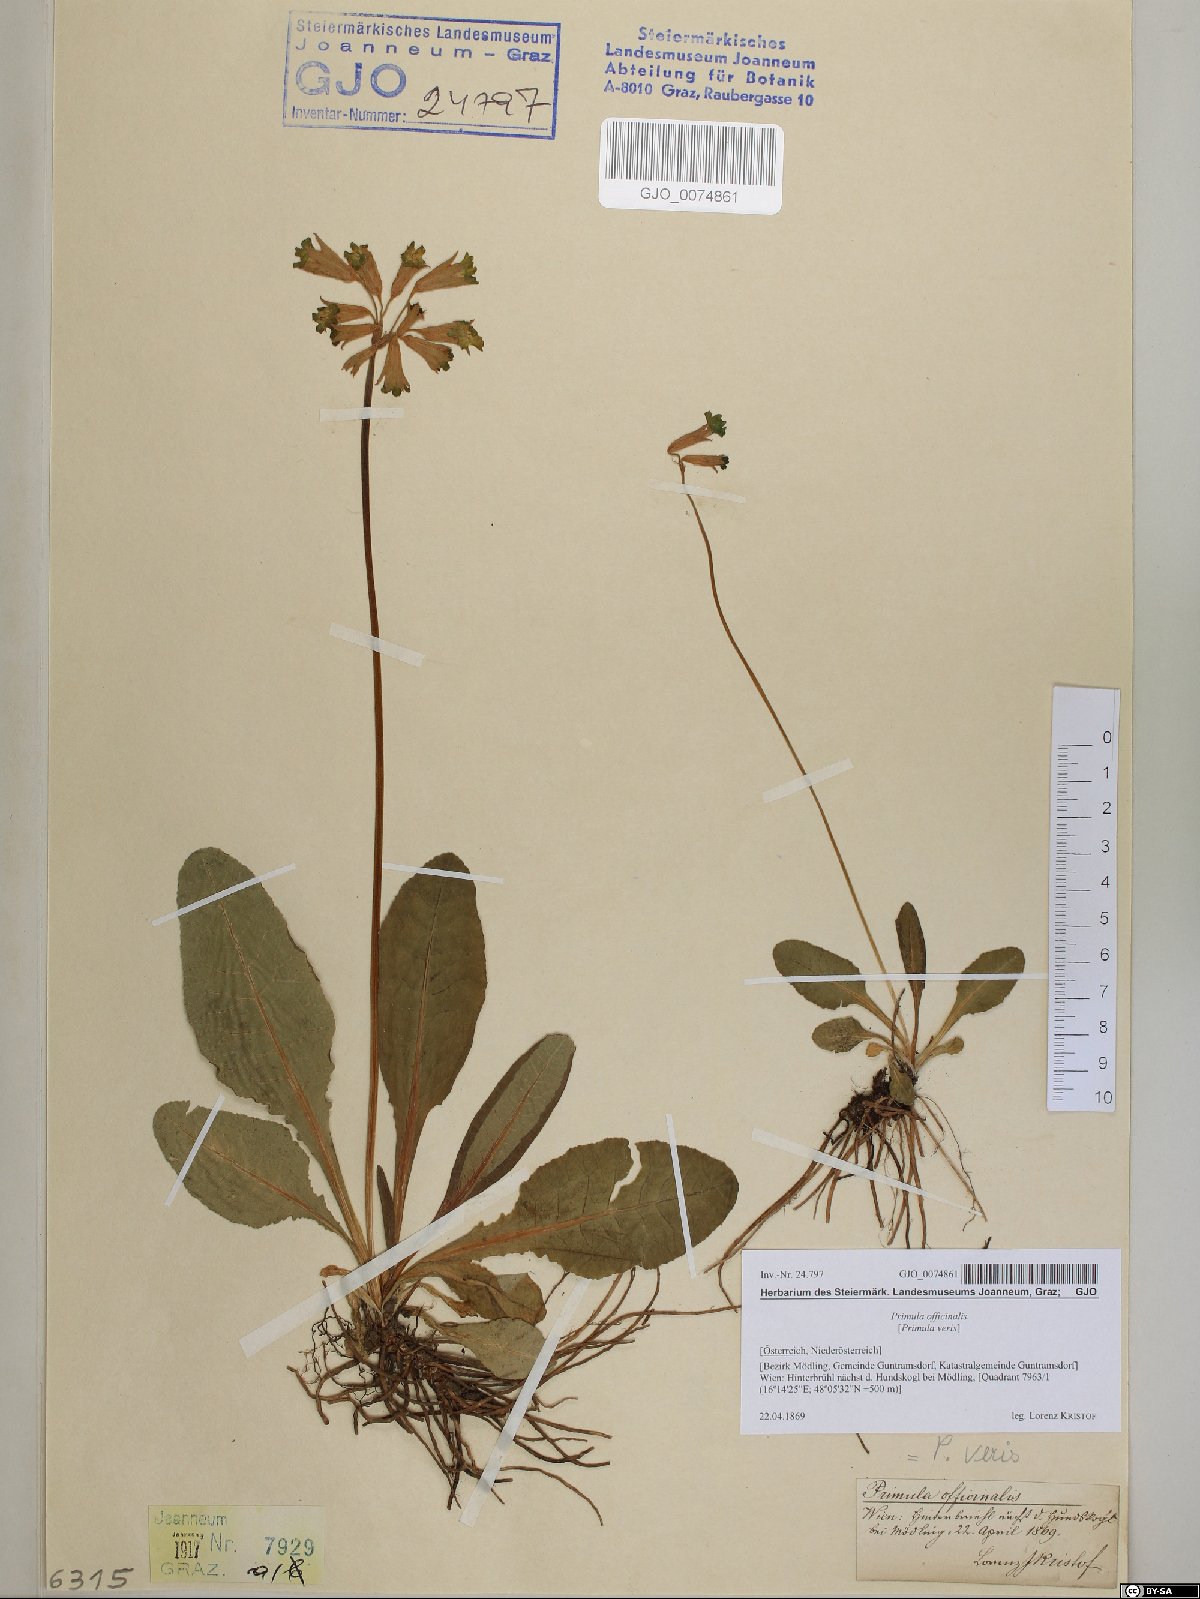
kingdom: Plantae
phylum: Tracheophyta
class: Magnoliopsida
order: Ericales
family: Primulaceae
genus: Primula
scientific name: Primula veris
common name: Cowslip
